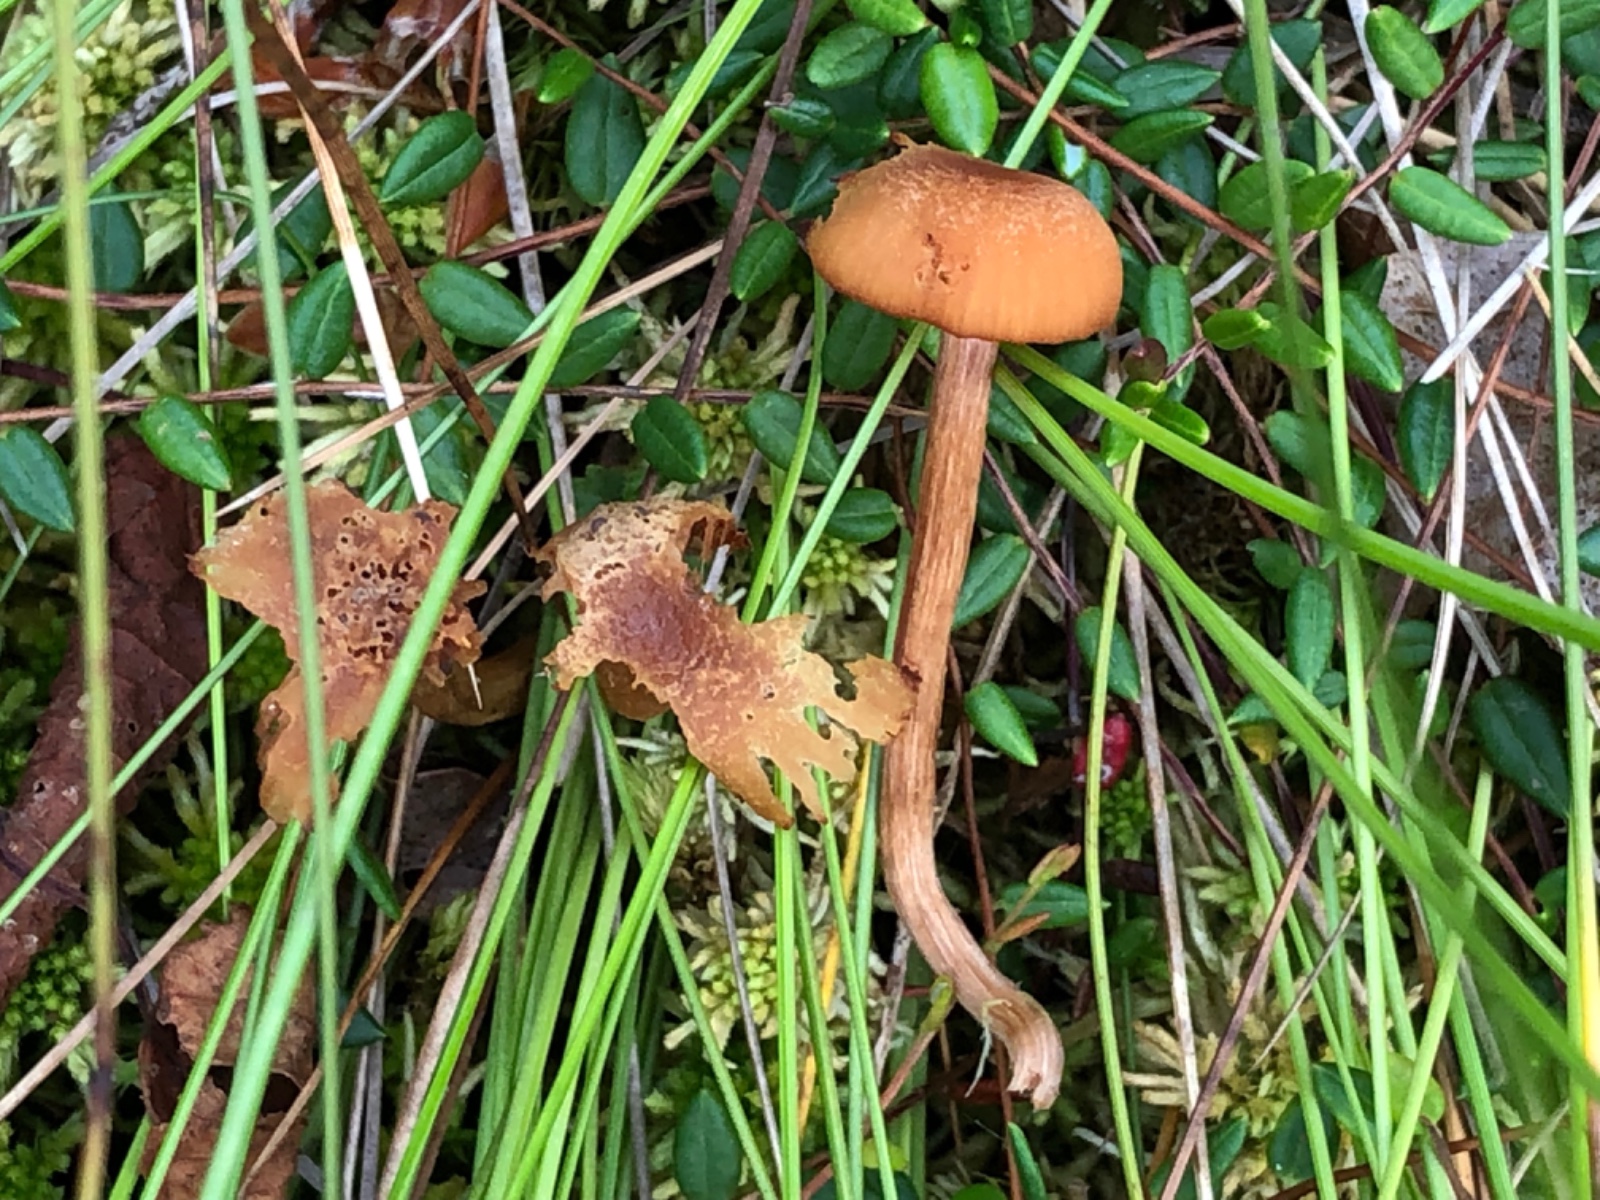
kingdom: Fungi
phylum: Basidiomycota
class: Agaricomycetes
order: Agaricales
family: Hydnangiaceae
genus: Laccaria
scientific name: Laccaria laccata
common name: rød ametysthat
